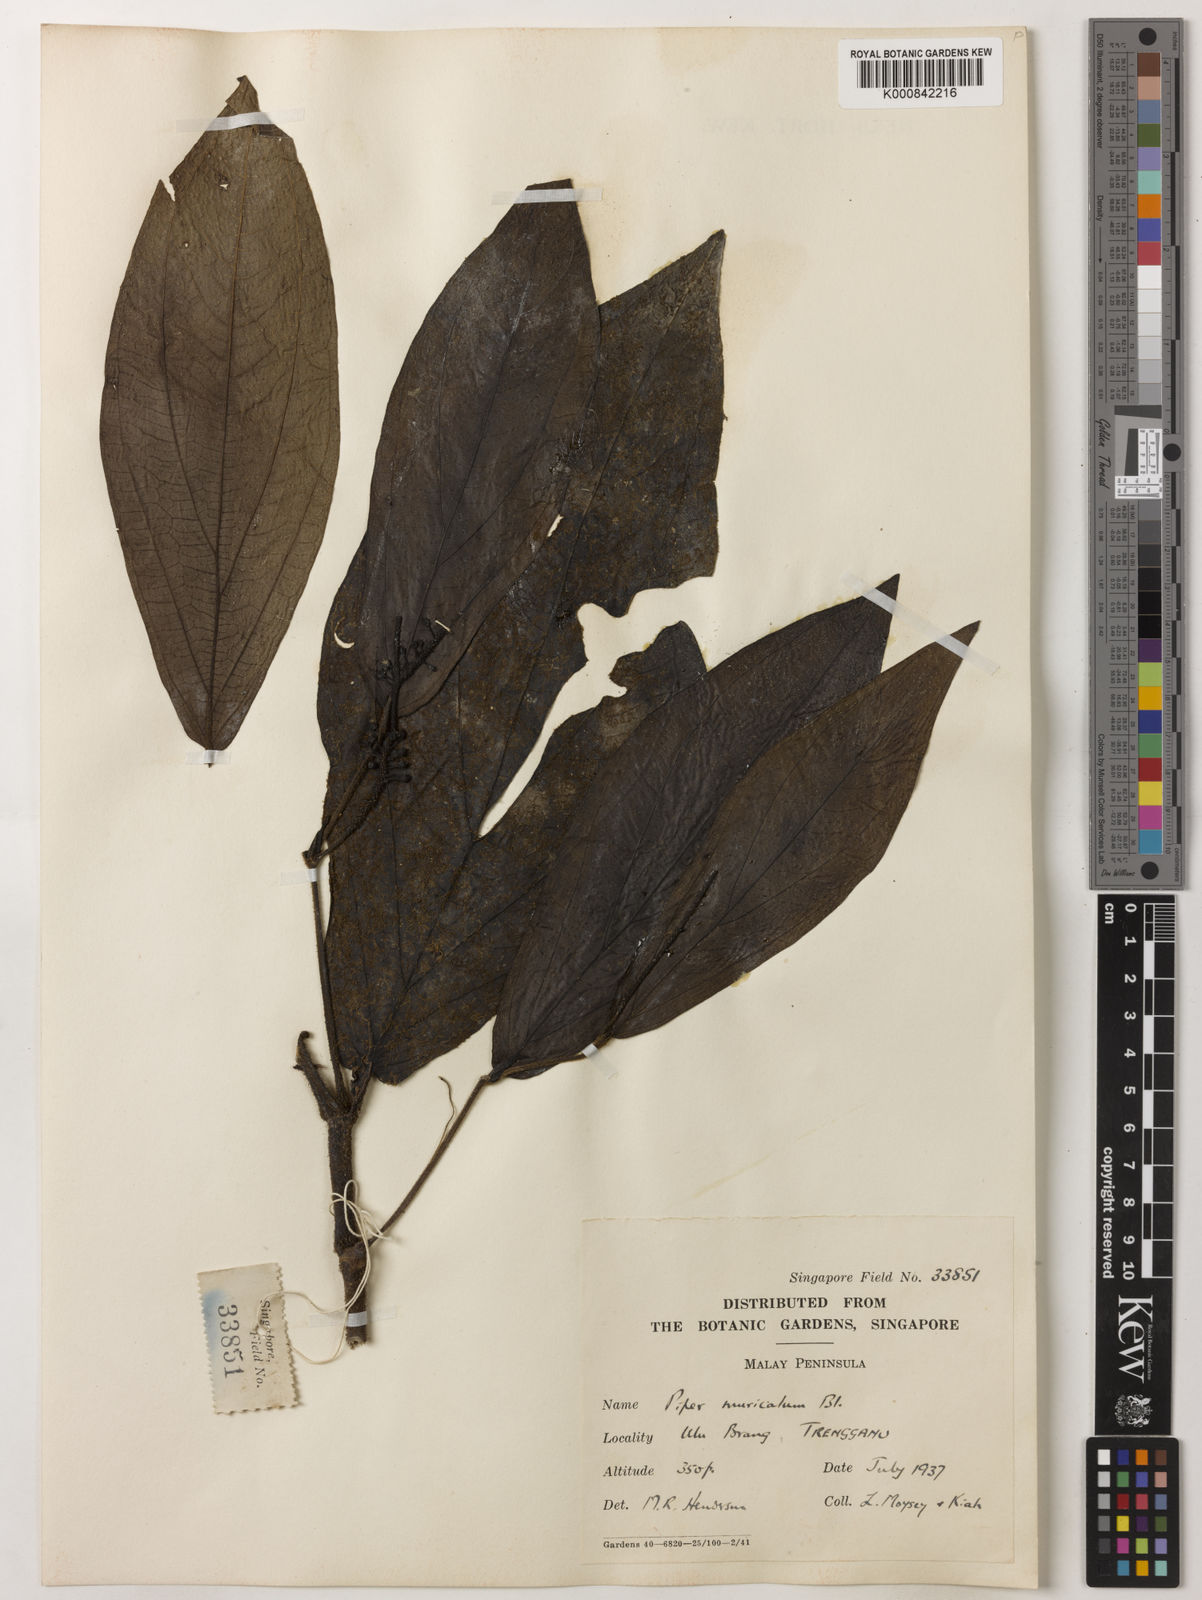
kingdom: Plantae
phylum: Tracheophyta
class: Magnoliopsida
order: Piperales
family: Piperaceae
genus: Piper
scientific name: Piper muricatum
